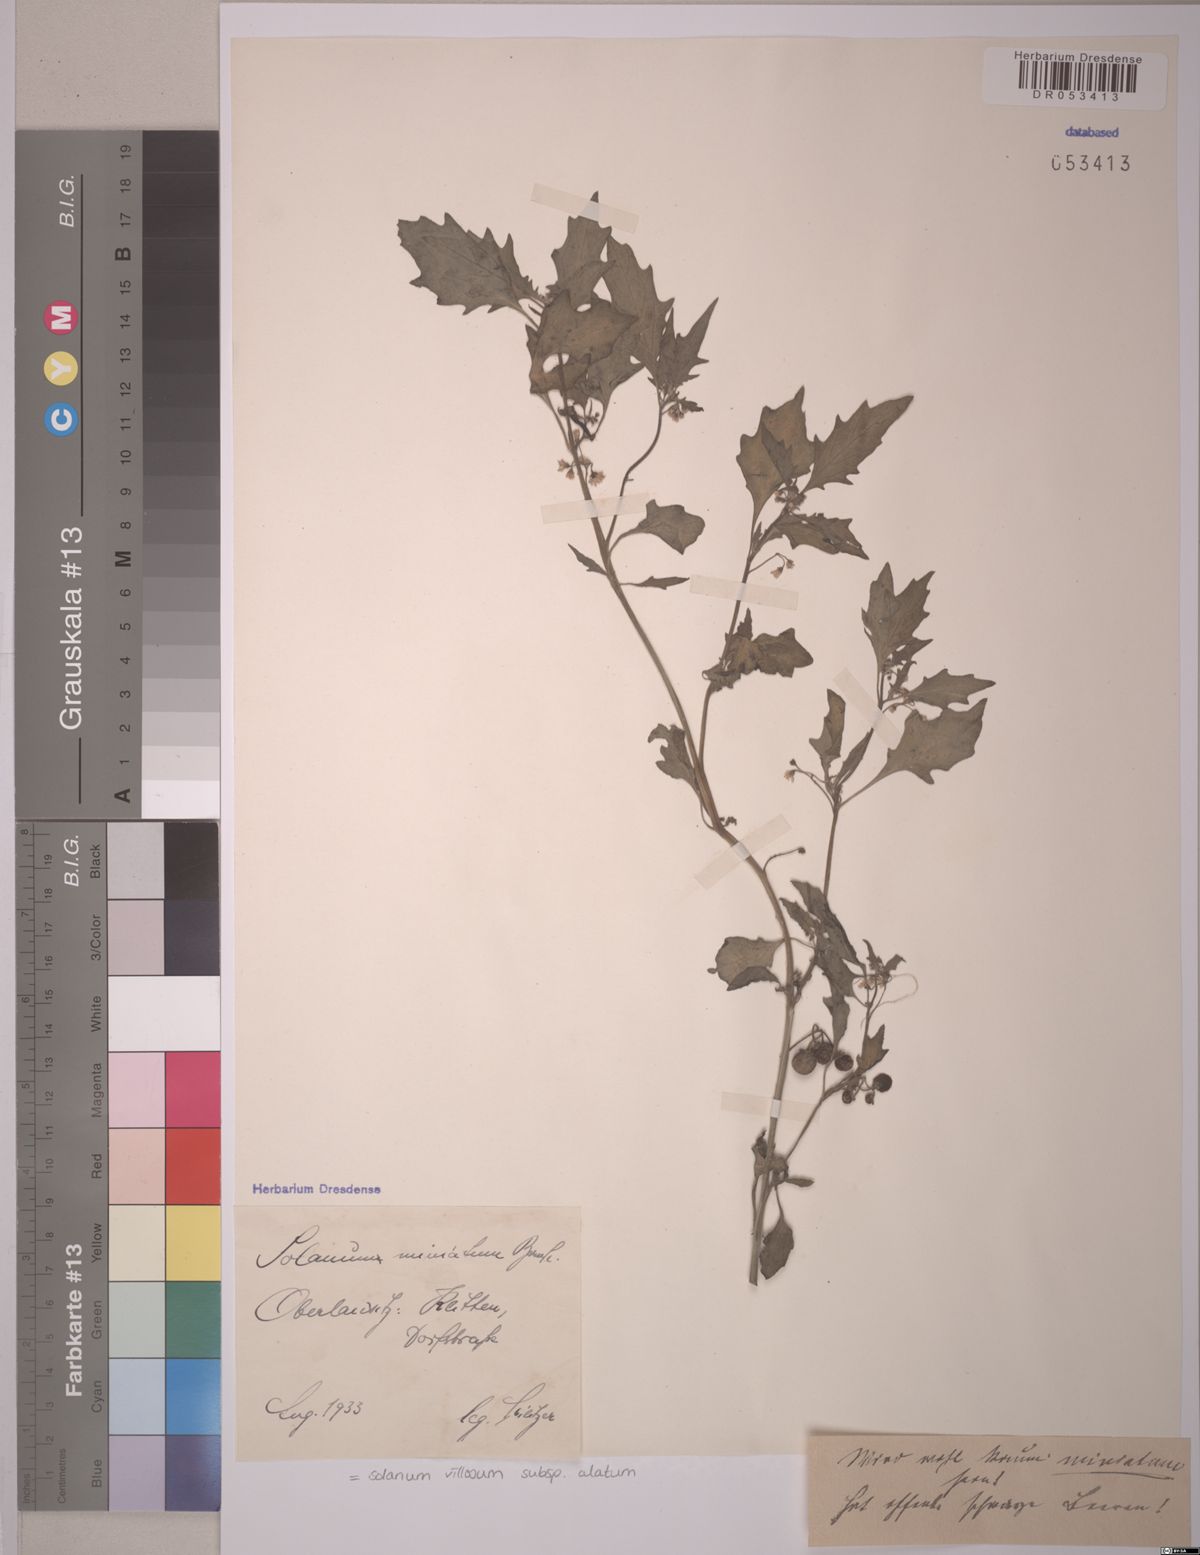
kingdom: Plantae
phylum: Tracheophyta
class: Magnoliopsida
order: Solanales
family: Solanaceae
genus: Solanum
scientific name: Solanum alatum
